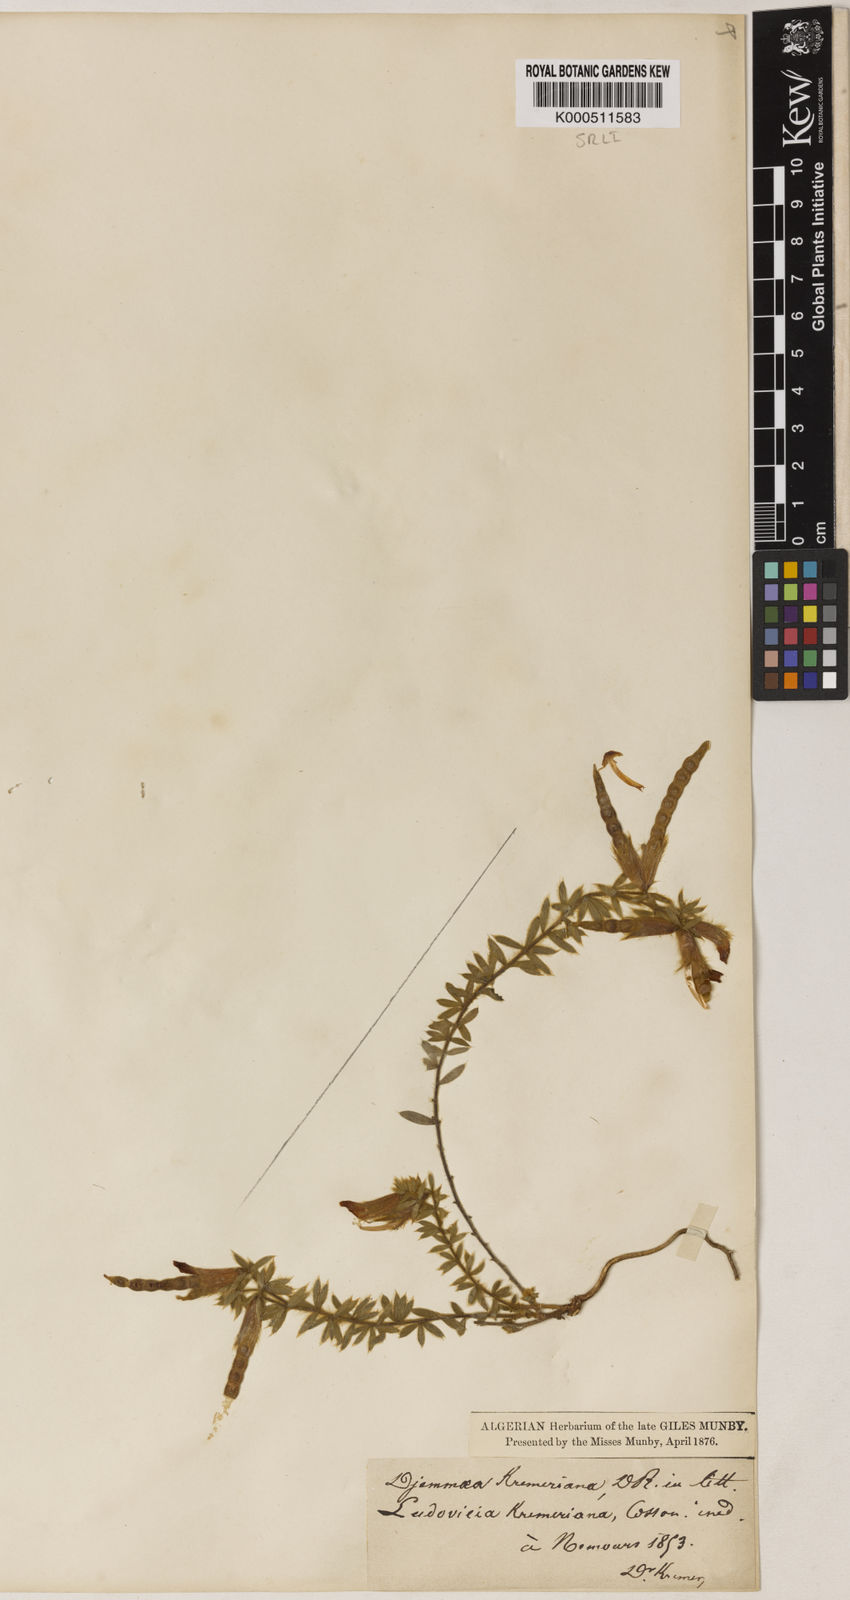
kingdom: Plantae
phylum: Tracheophyta
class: Magnoliopsida
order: Fabales
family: Fabaceae
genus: Hammatolobium
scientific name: Hammatolobium
